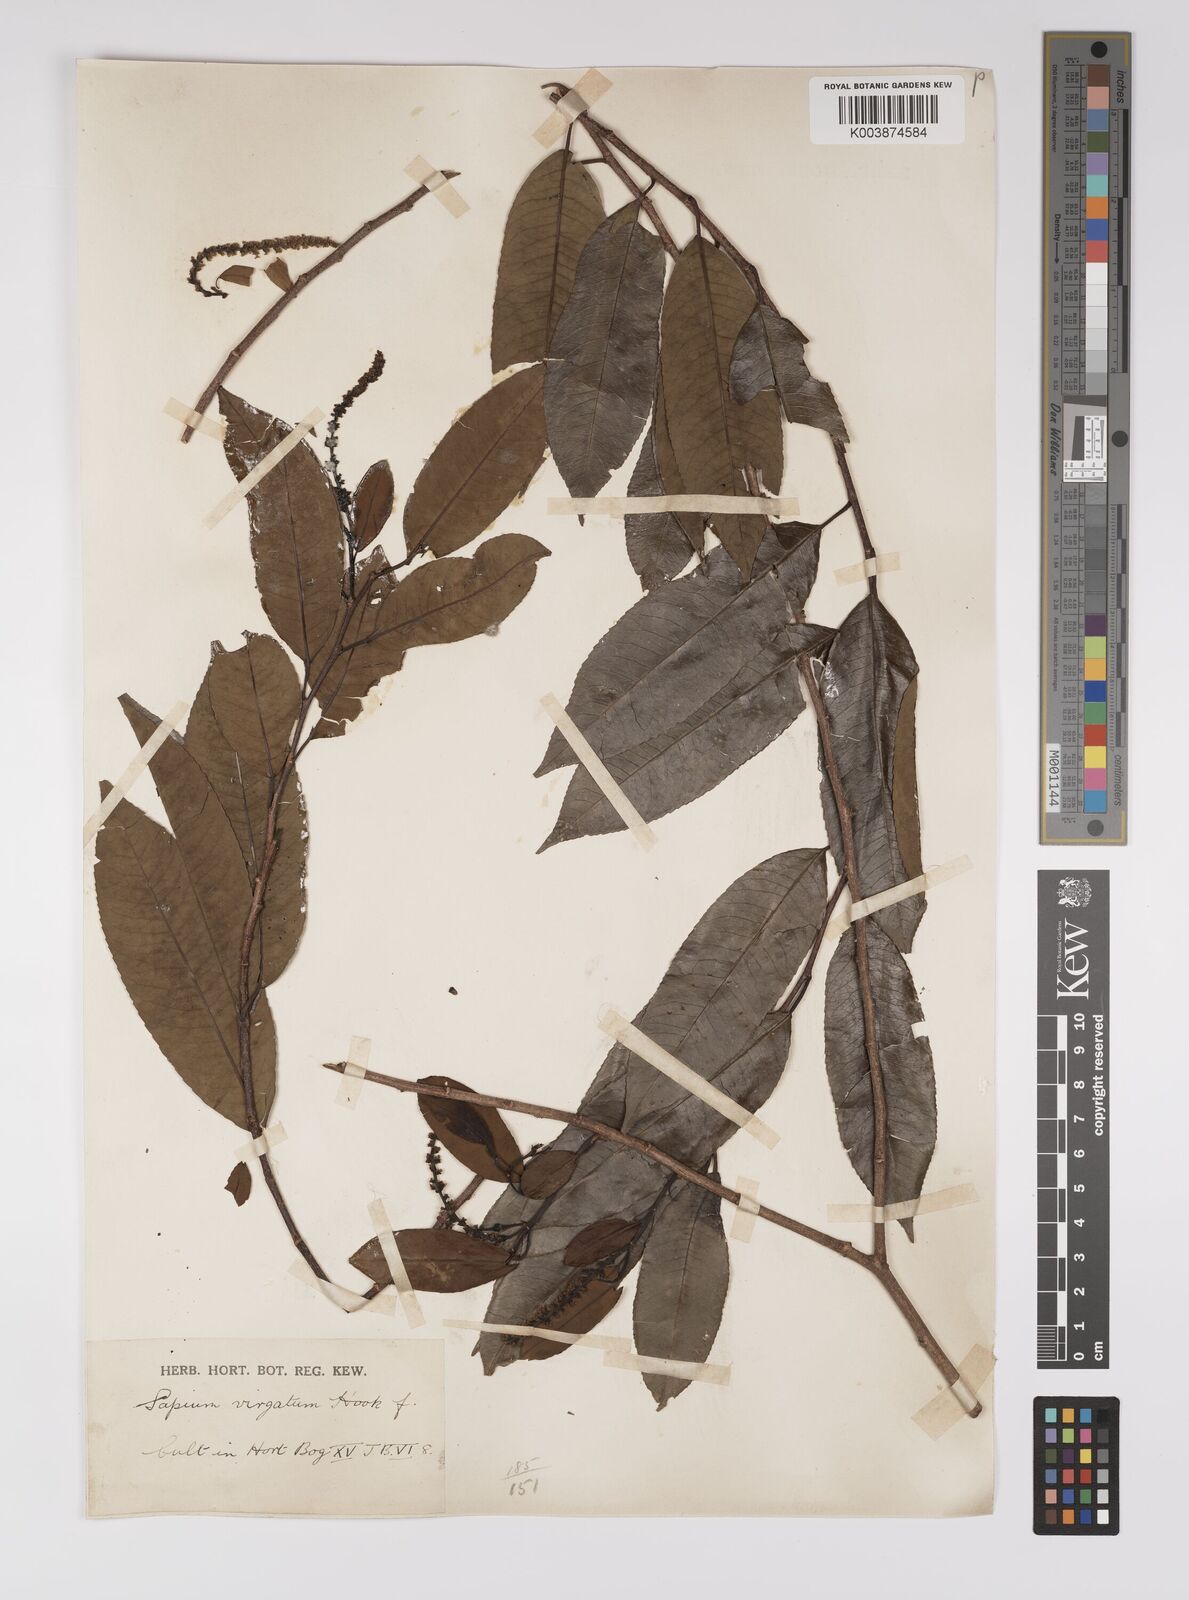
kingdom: Plantae
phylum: Tracheophyta
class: Magnoliopsida
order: Malpighiales
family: Euphorbiaceae
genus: Shirakiopsis
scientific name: Shirakiopsis virgata
